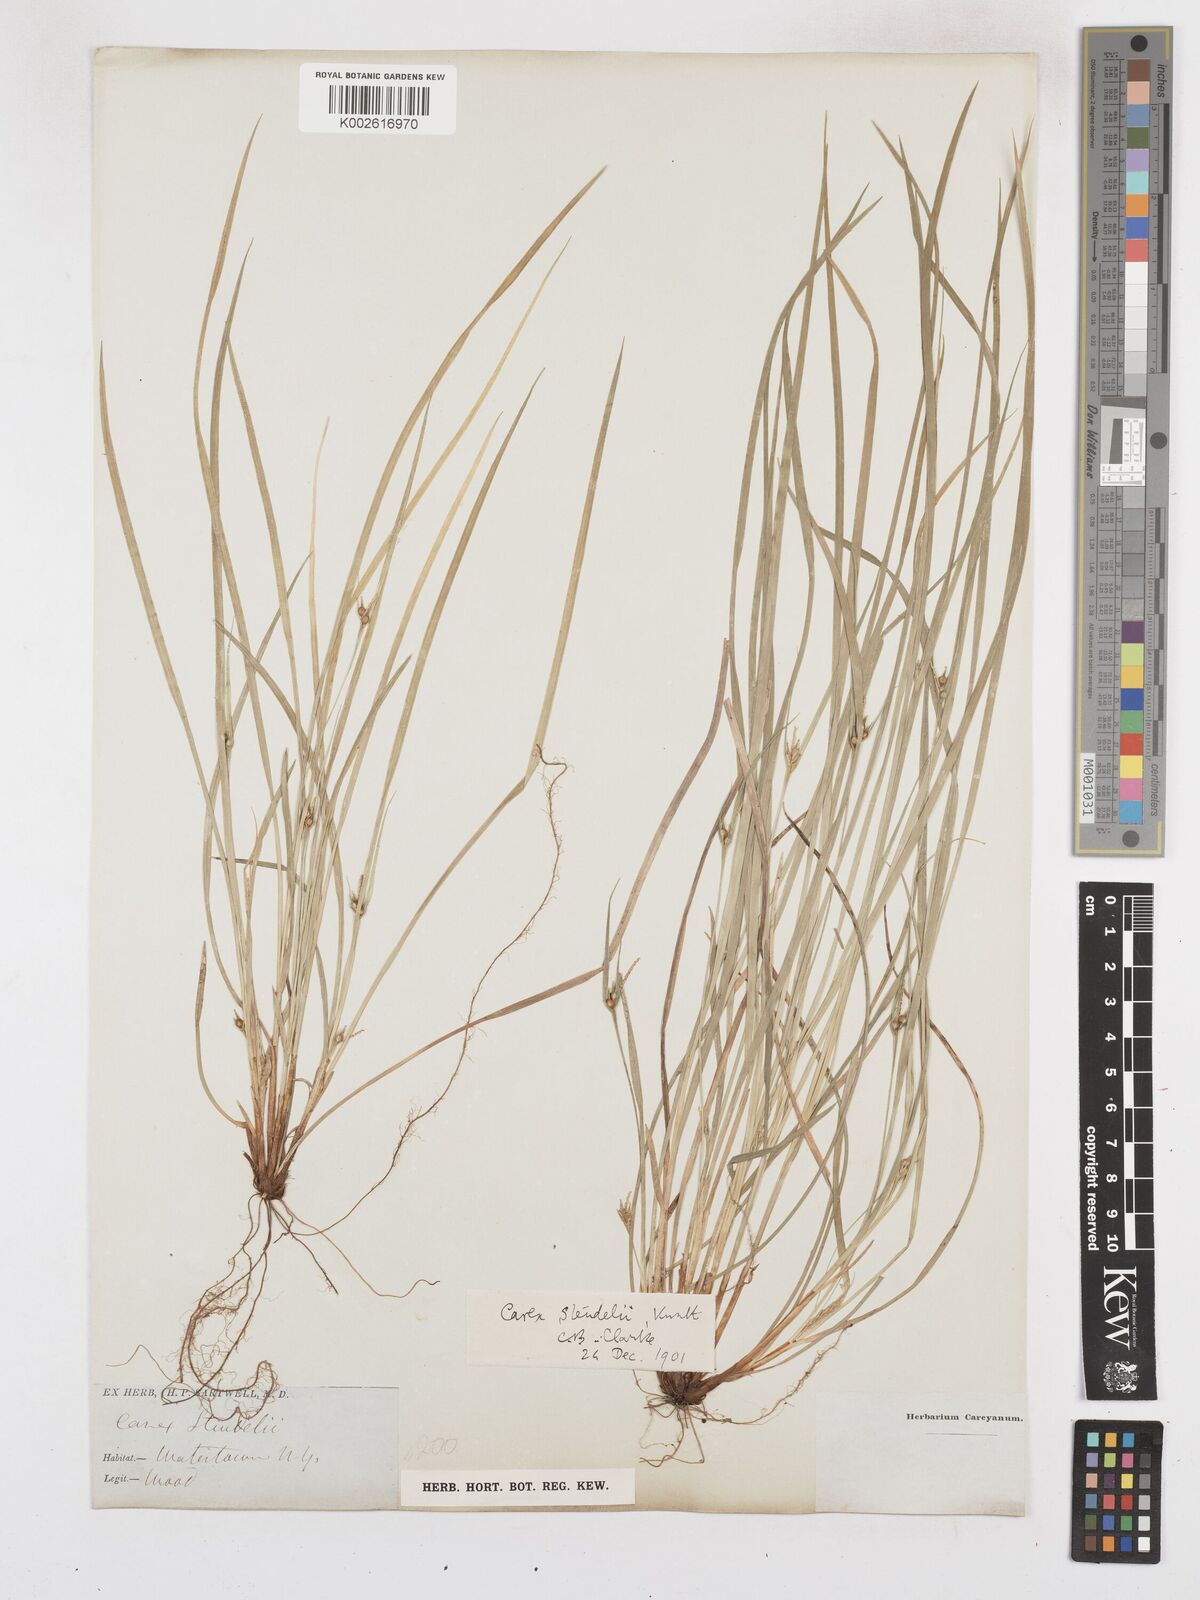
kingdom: Plantae
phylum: Tracheophyta
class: Liliopsida
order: Poales
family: Cyperaceae
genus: Carex
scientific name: Carex jamesii
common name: Grass sedge
